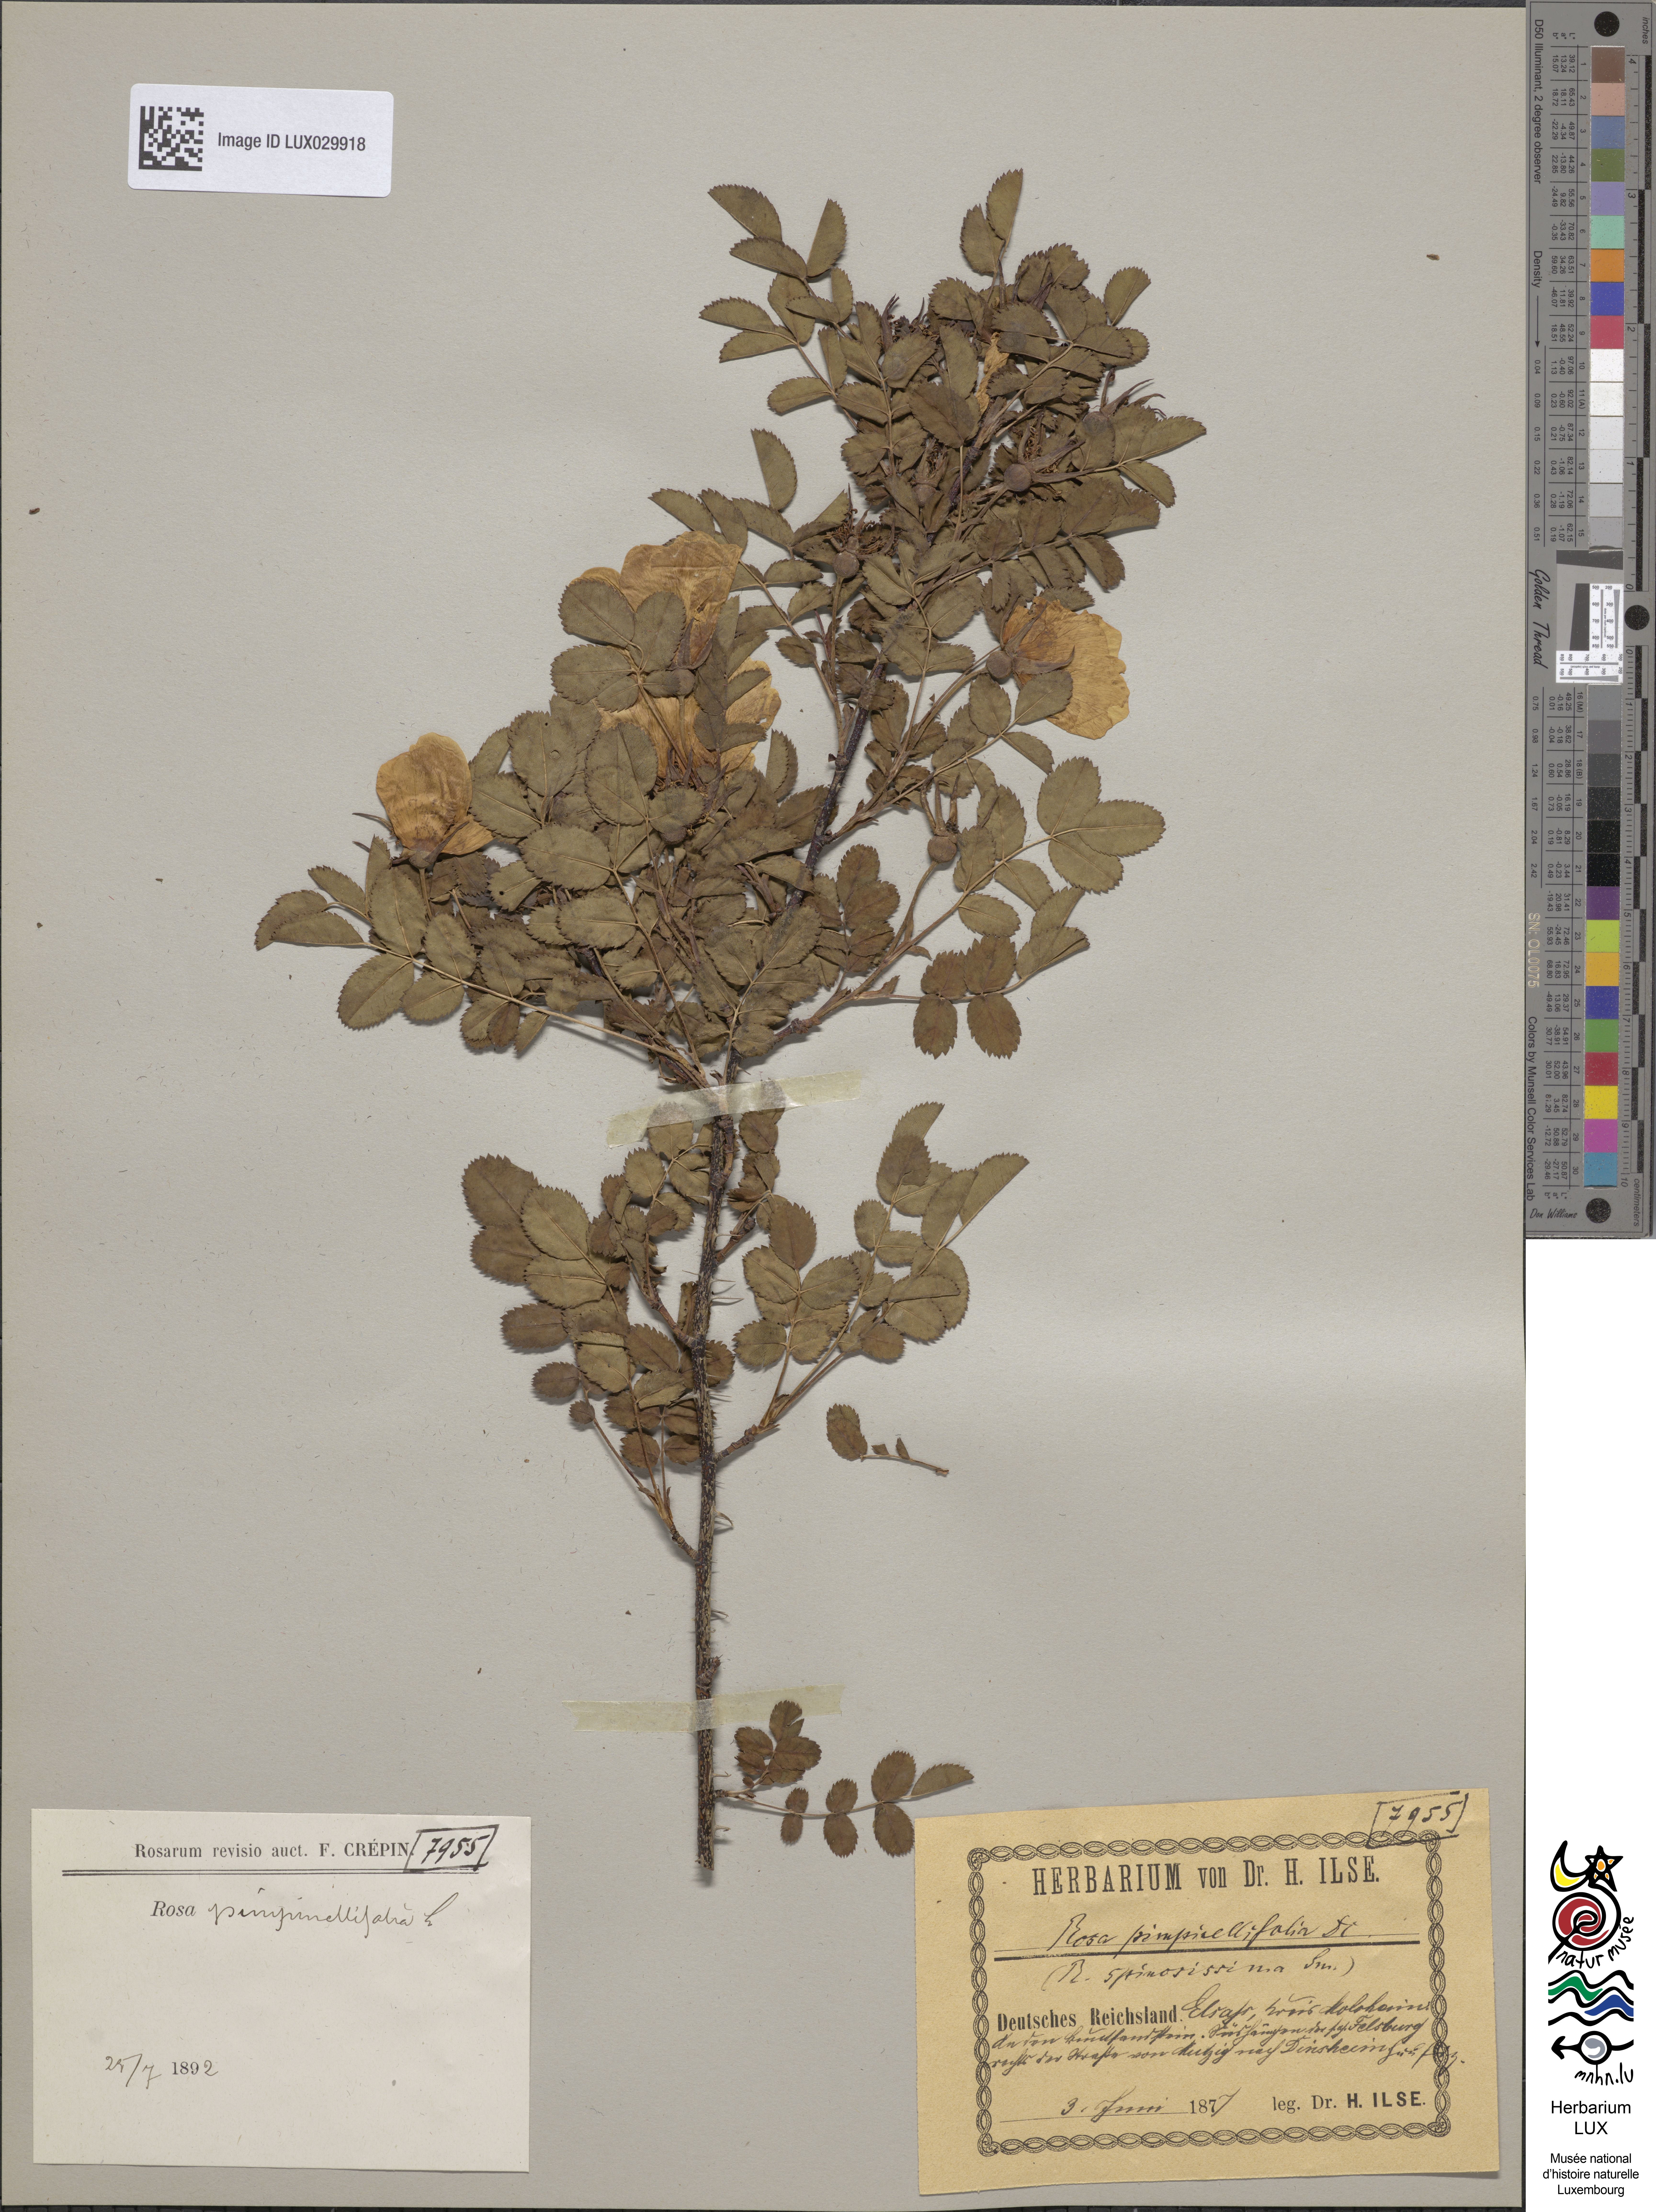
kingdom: Plantae
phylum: Tracheophyta
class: Magnoliopsida
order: Rosales
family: Rosaceae
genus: Rosa
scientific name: Rosa
